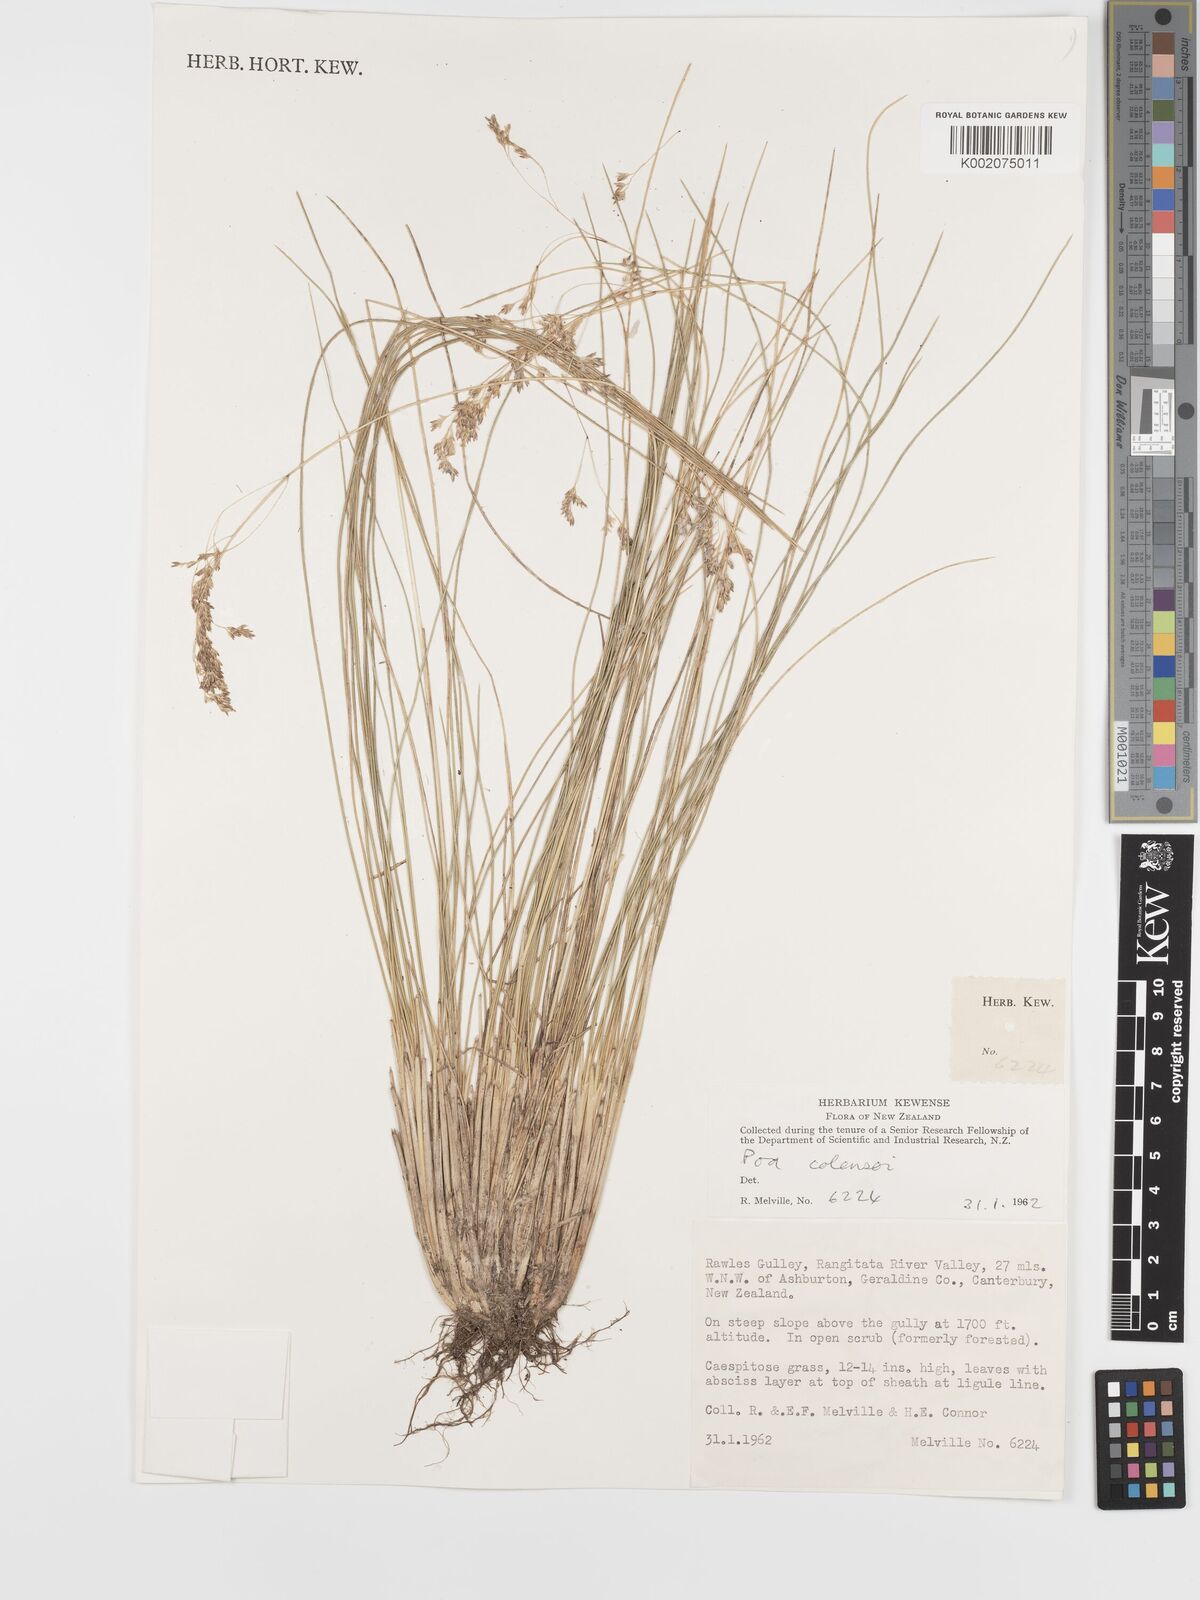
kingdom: Plantae
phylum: Tracheophyta
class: Liliopsida
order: Poales
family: Poaceae
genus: Poa
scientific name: Poa colensoi
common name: Blue tussock
